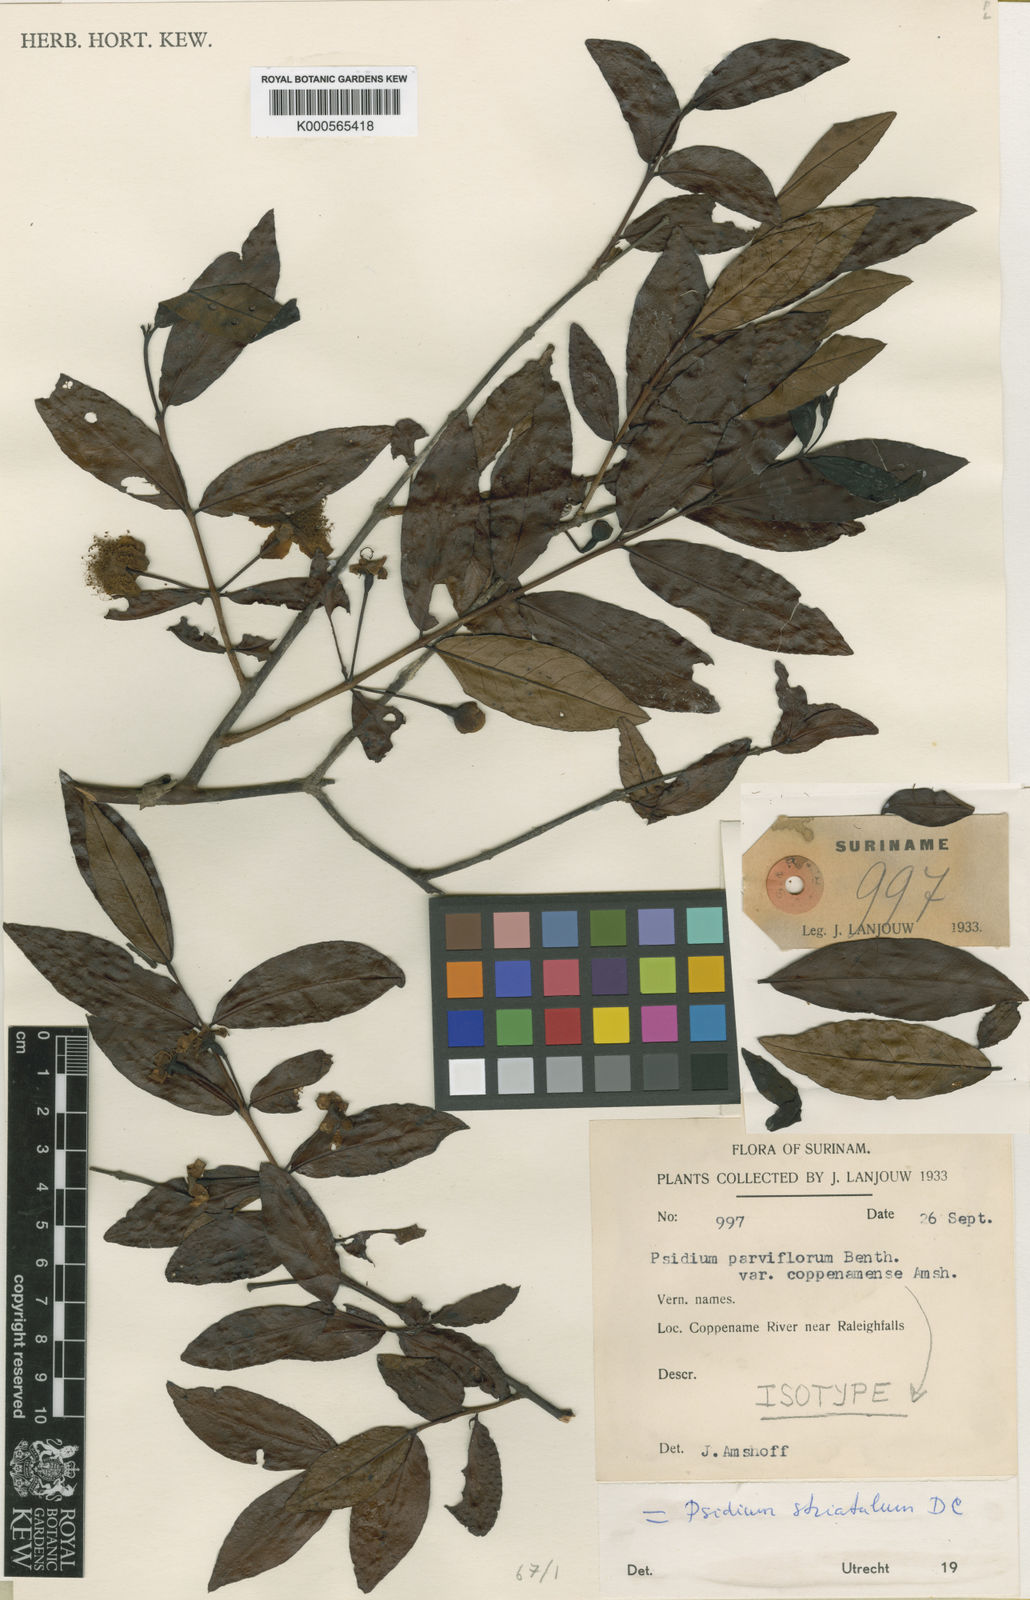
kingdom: Plantae
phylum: Tracheophyta
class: Magnoliopsida
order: Myrtales
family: Myrtaceae
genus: Psidium
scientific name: Psidium striatulum
